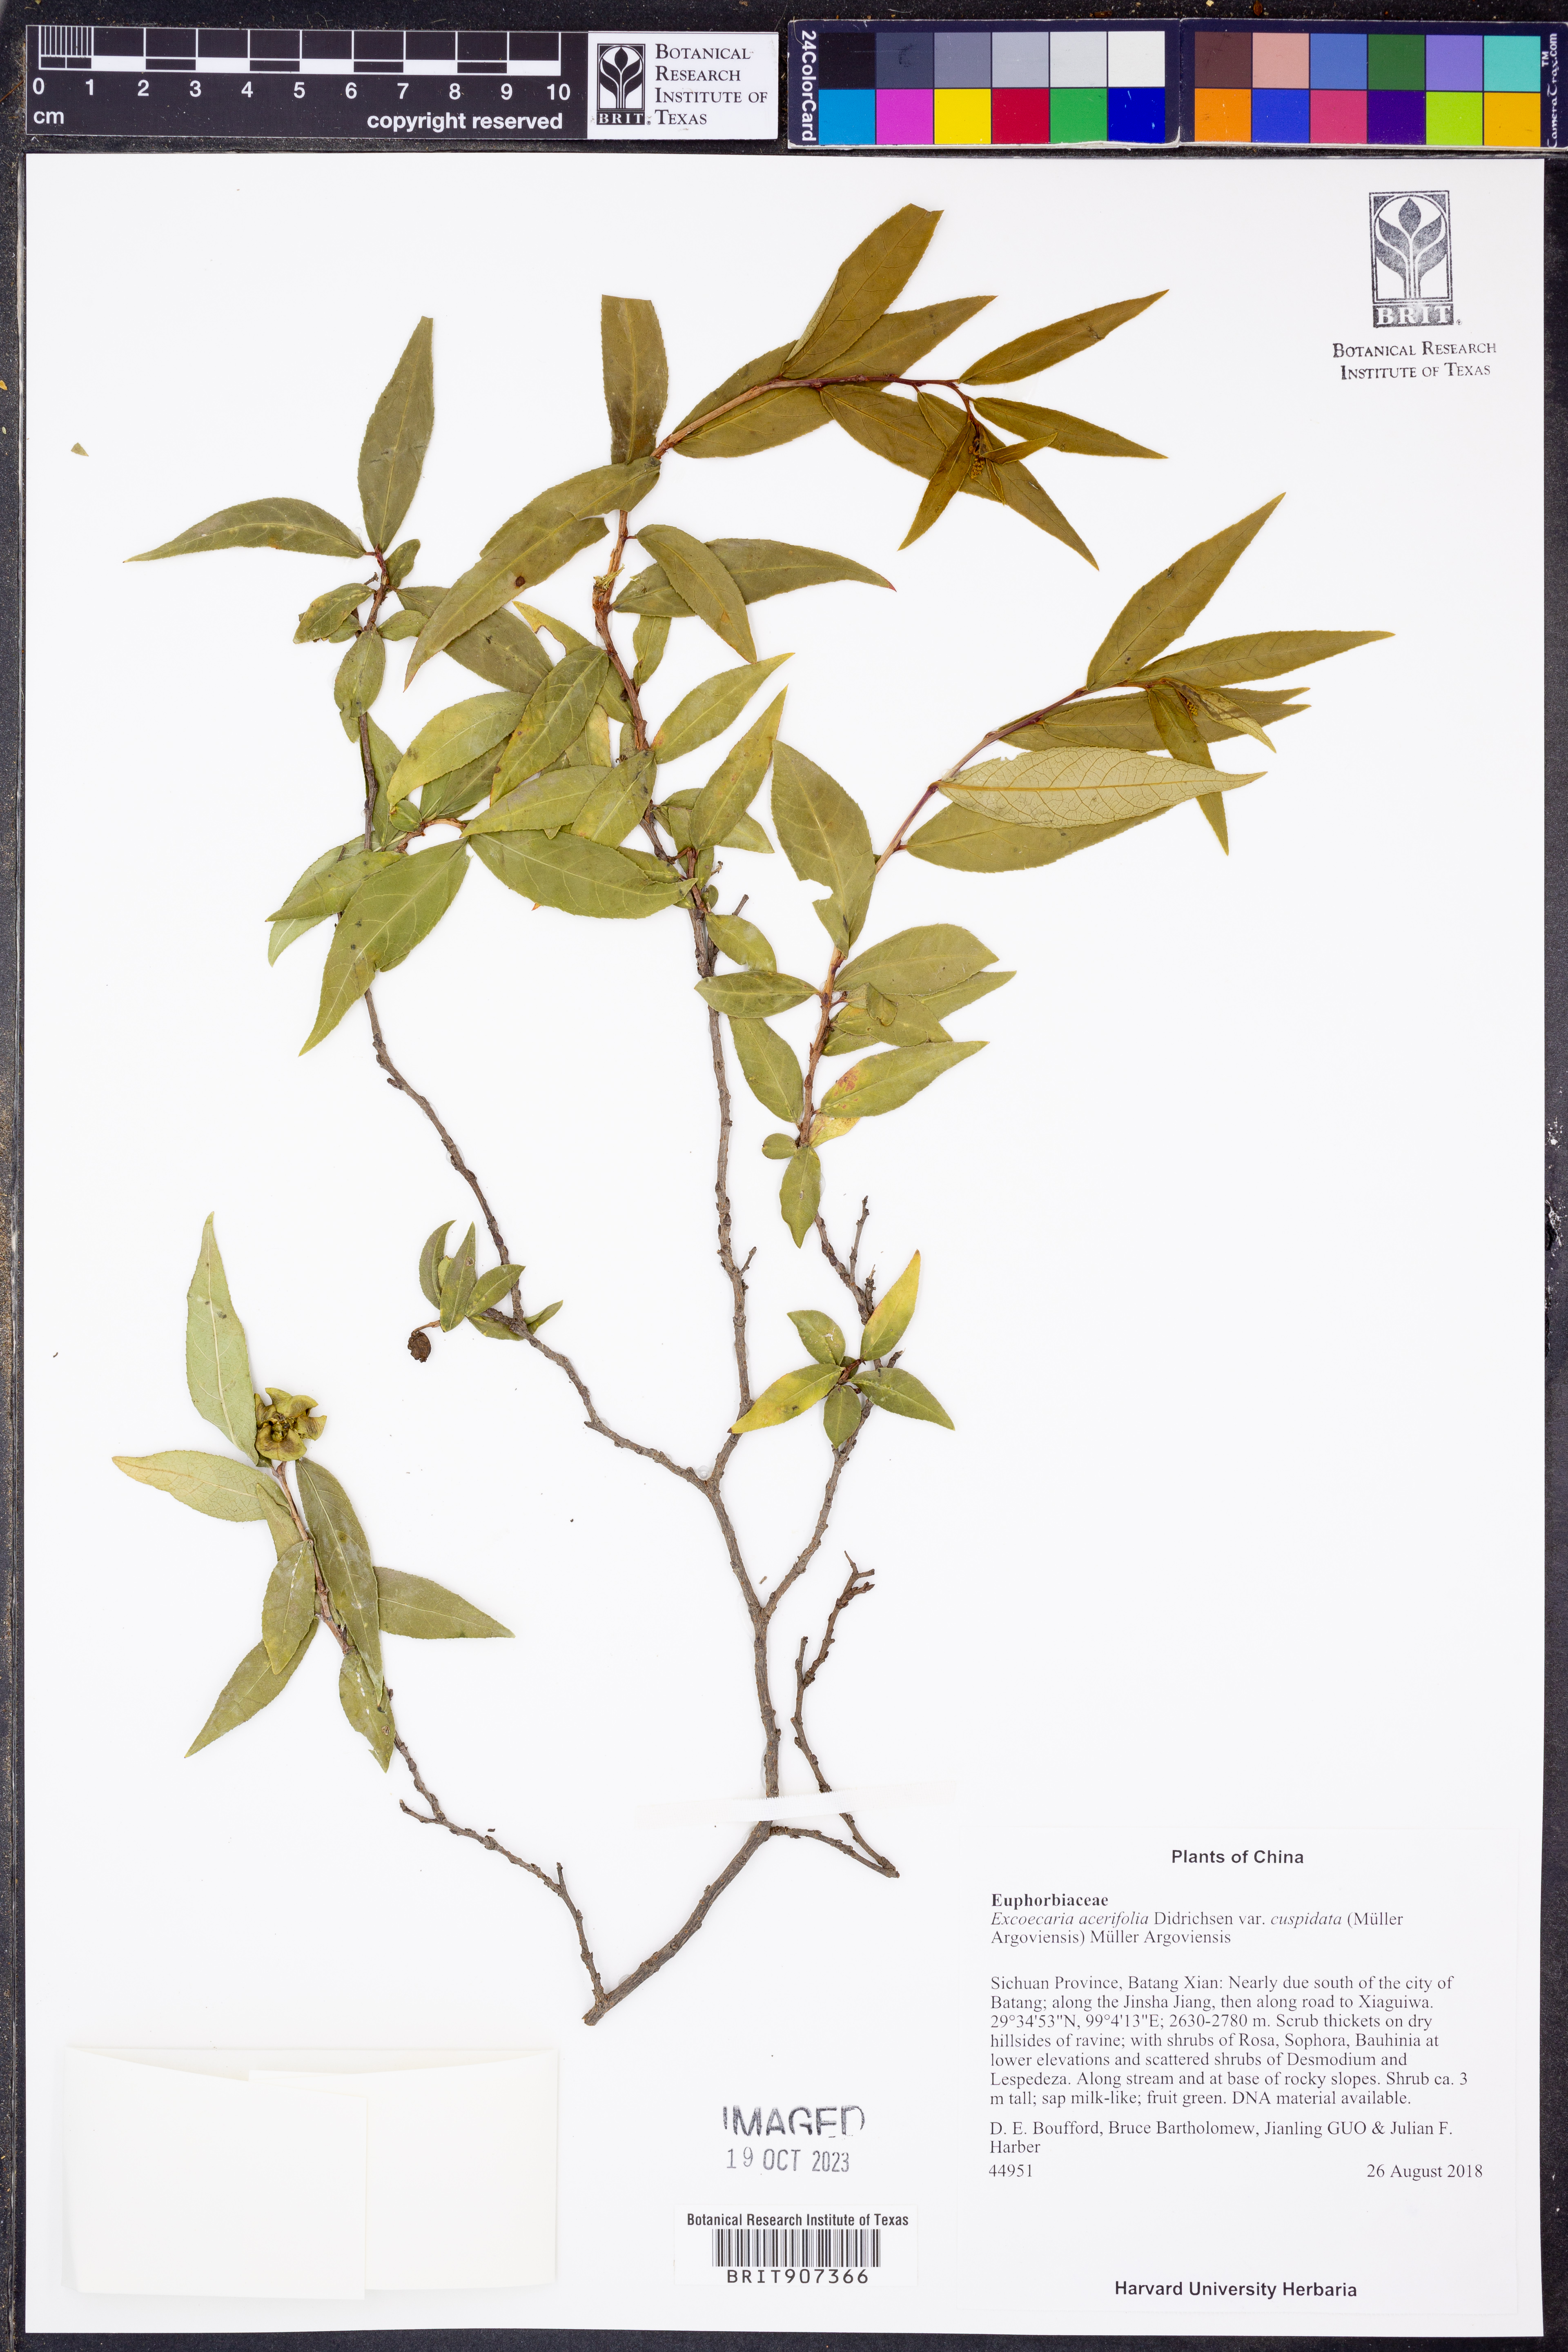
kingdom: Plantae
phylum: Tracheophyta
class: Magnoliopsida
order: Malpighiales
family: Euphorbiaceae
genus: Excoecaria
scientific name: Excoecaria cuspidata
